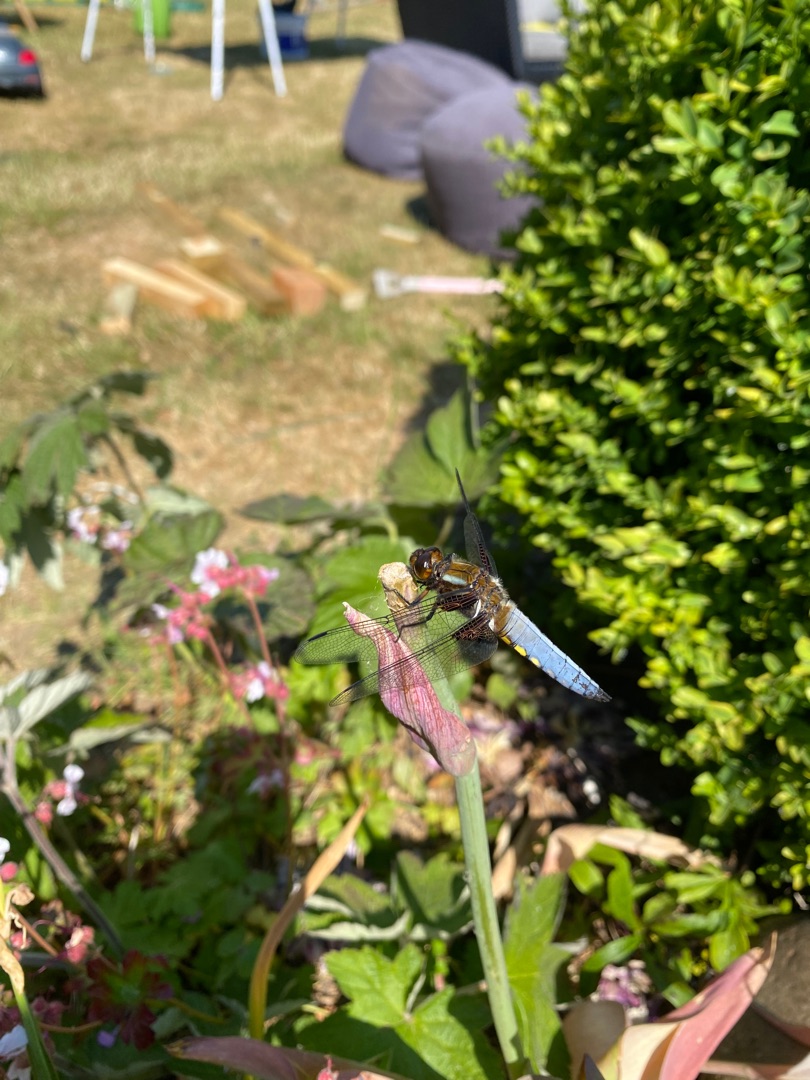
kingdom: Animalia
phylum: Arthropoda
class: Insecta
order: Odonata
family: Libellulidae
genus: Libellula
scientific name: Libellula depressa
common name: Blå libel
